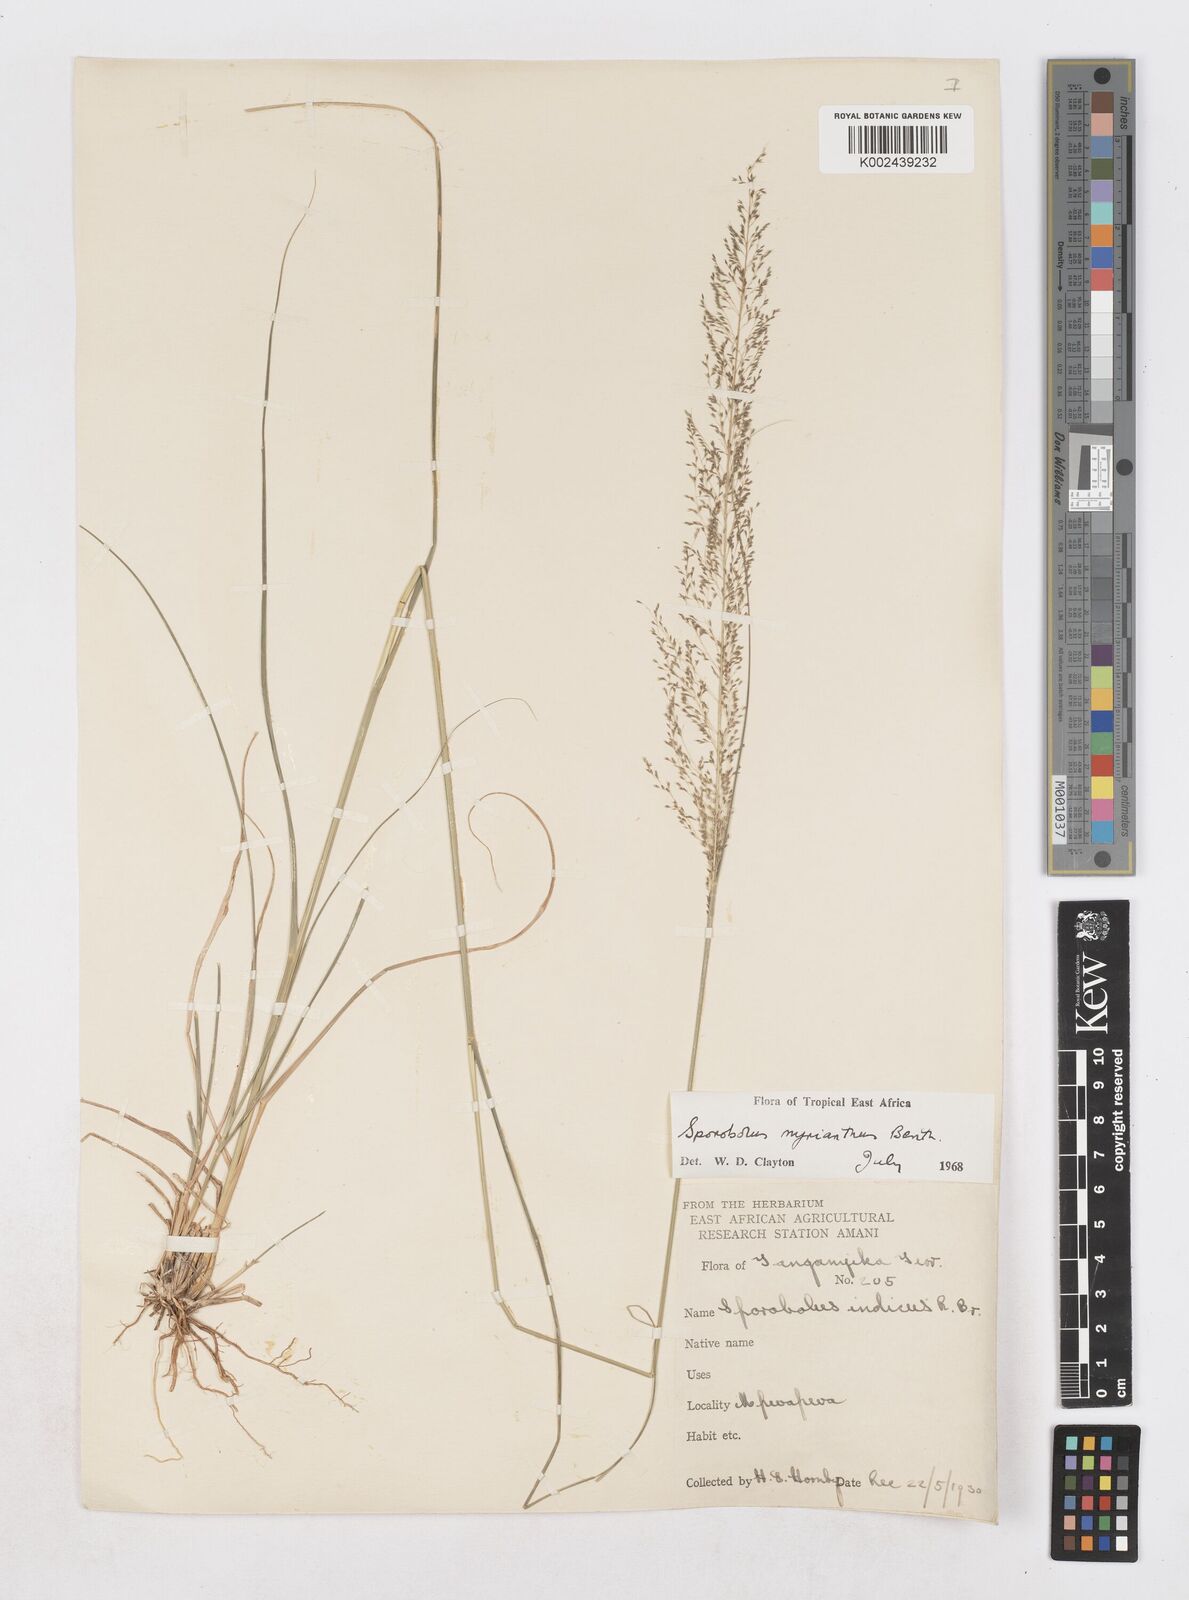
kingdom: Plantae
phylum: Tracheophyta
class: Liliopsida
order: Poales
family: Poaceae
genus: Sporobolus
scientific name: Sporobolus myrianthus
